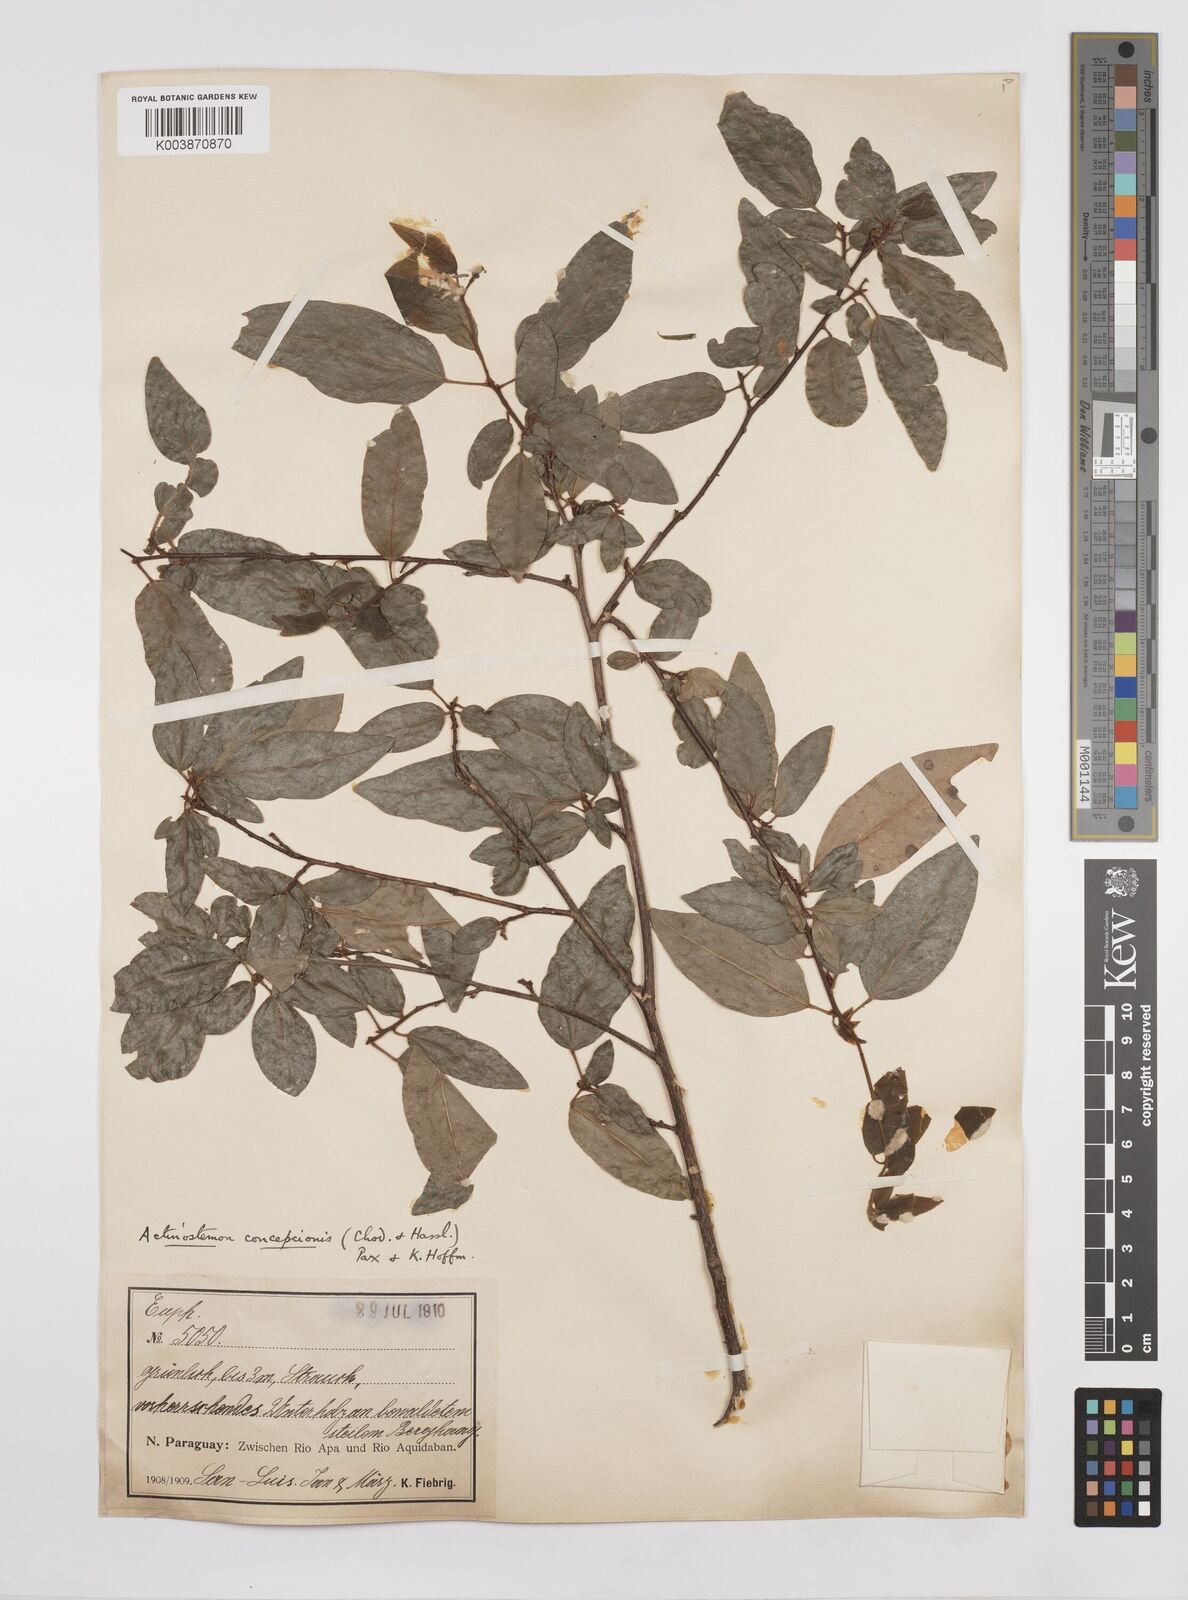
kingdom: Plantae
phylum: Tracheophyta
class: Magnoliopsida
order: Malpighiales
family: Euphorbiaceae
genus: Actinostemon
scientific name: Actinostemon concepcionis
